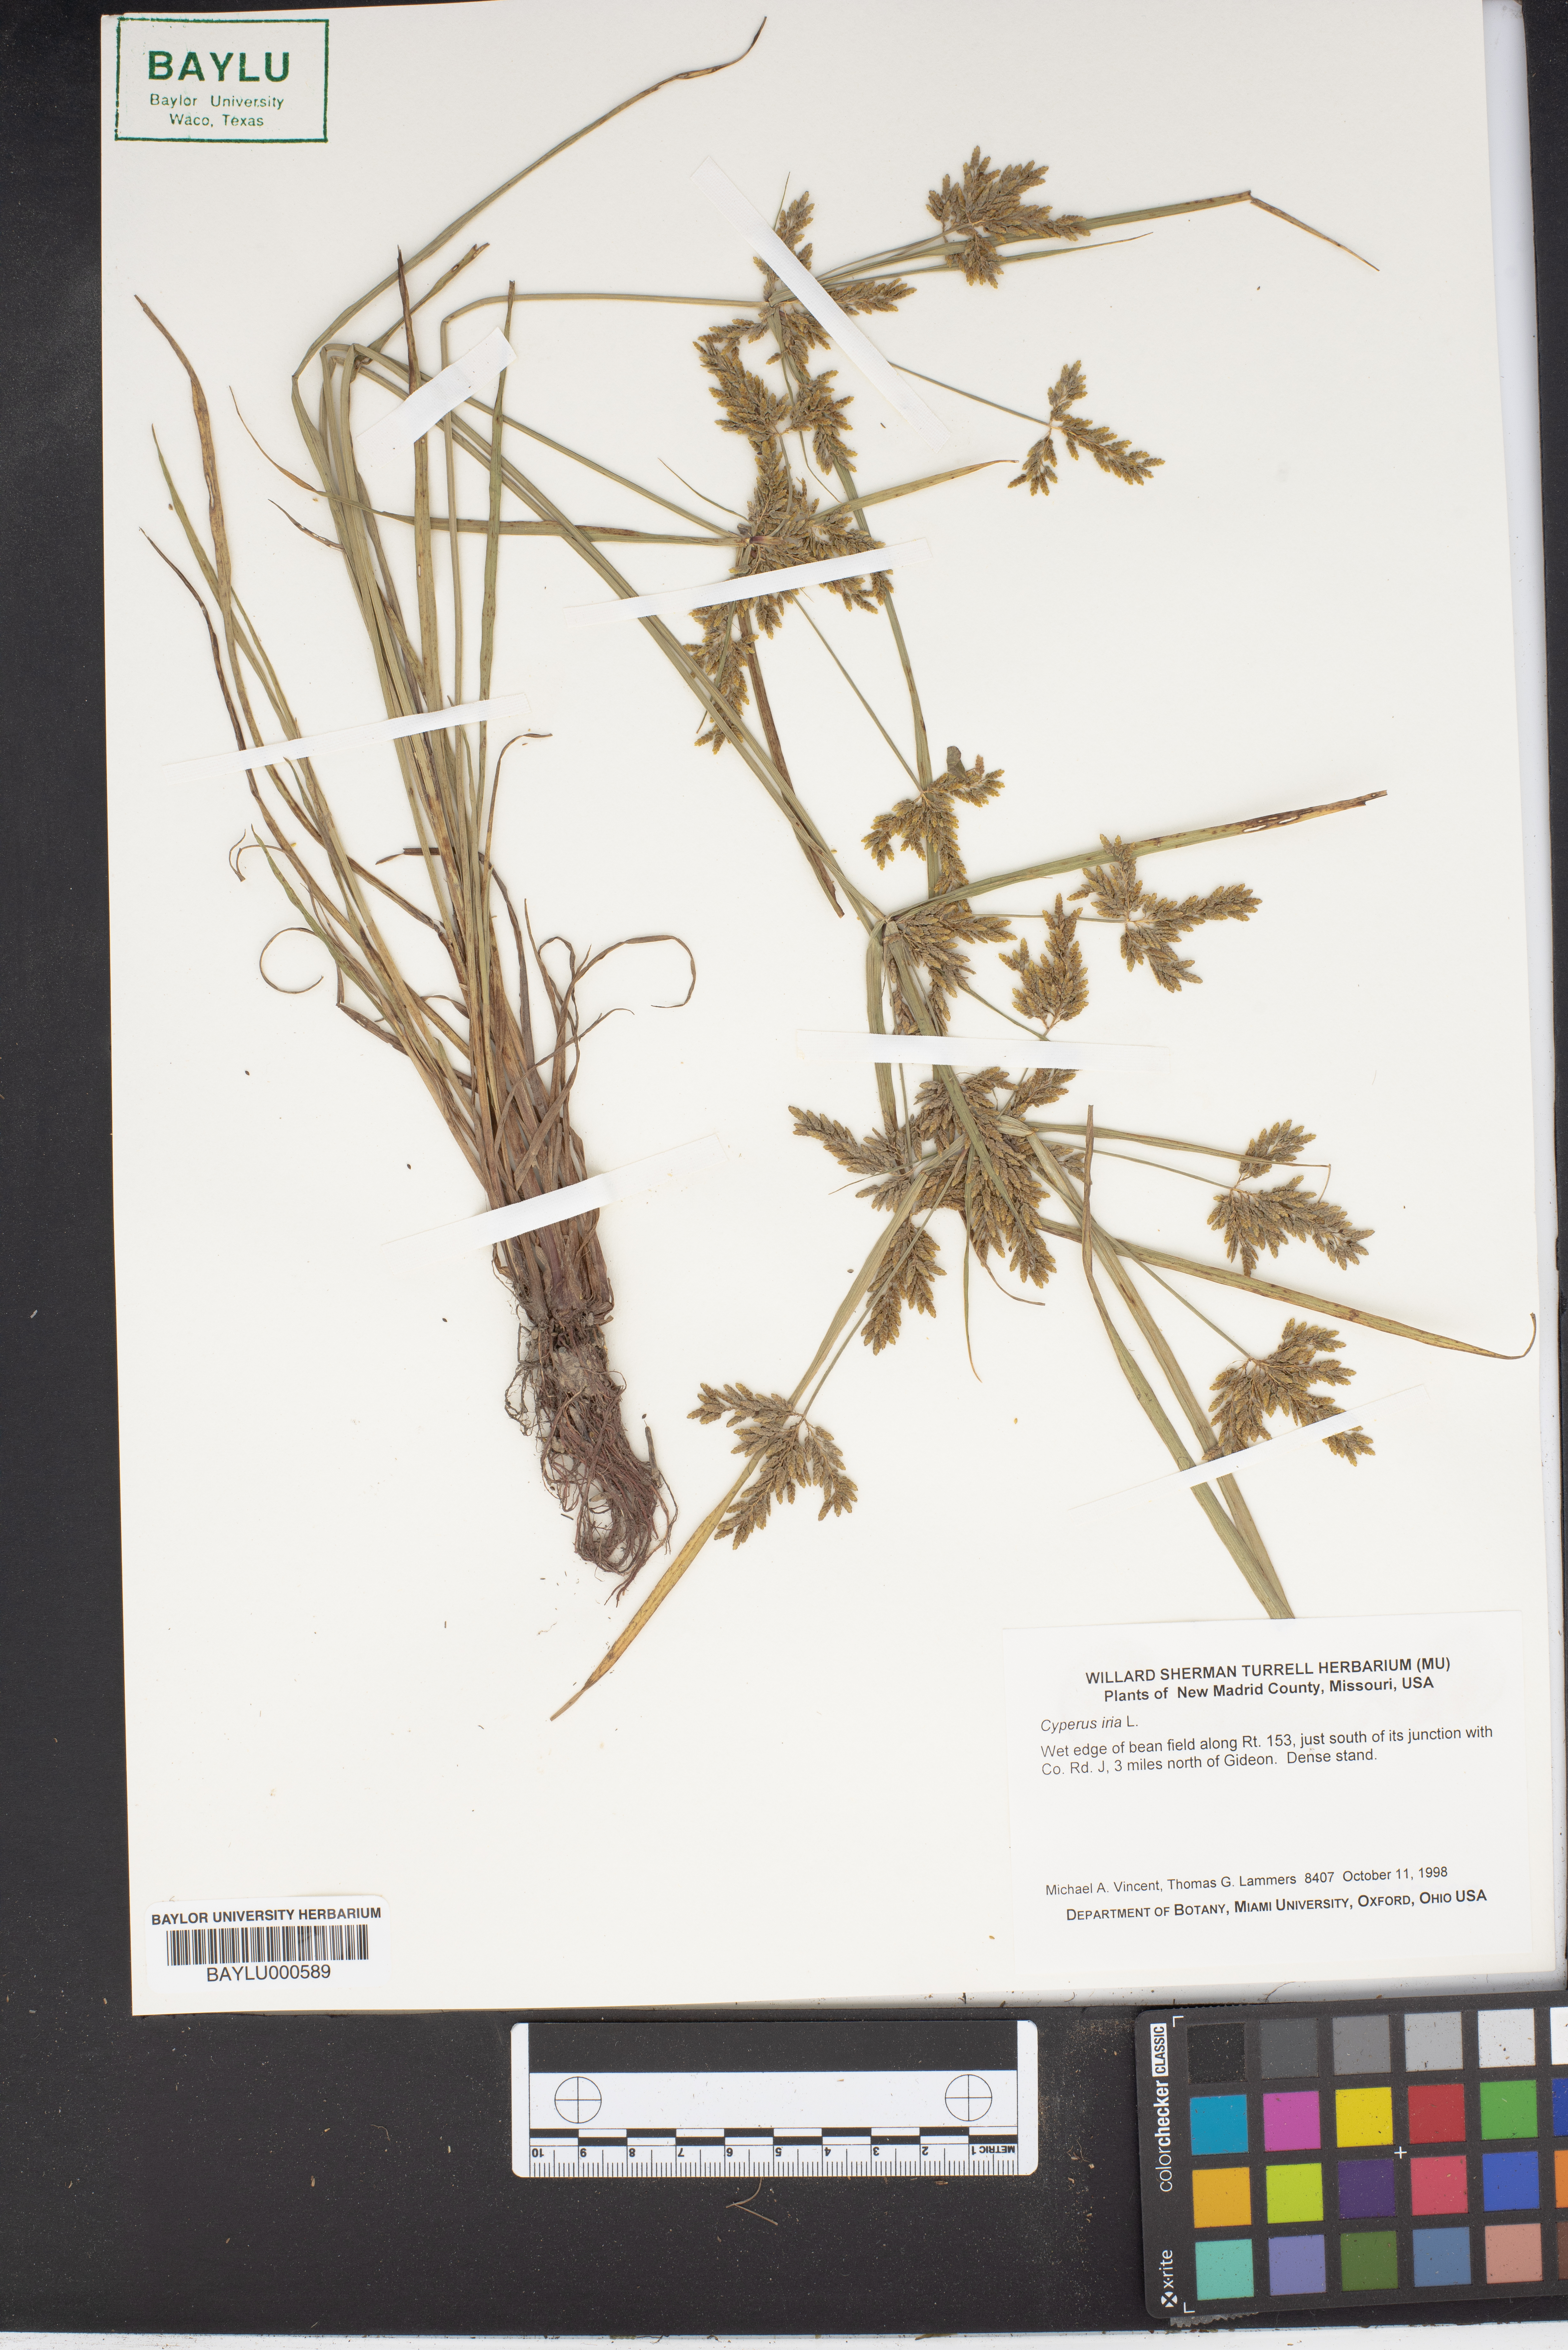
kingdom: Plantae
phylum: Tracheophyta
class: Liliopsida
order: Poales
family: Cyperaceae
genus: Cyperus
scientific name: Cyperus iria
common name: Ricefield flatsedge
